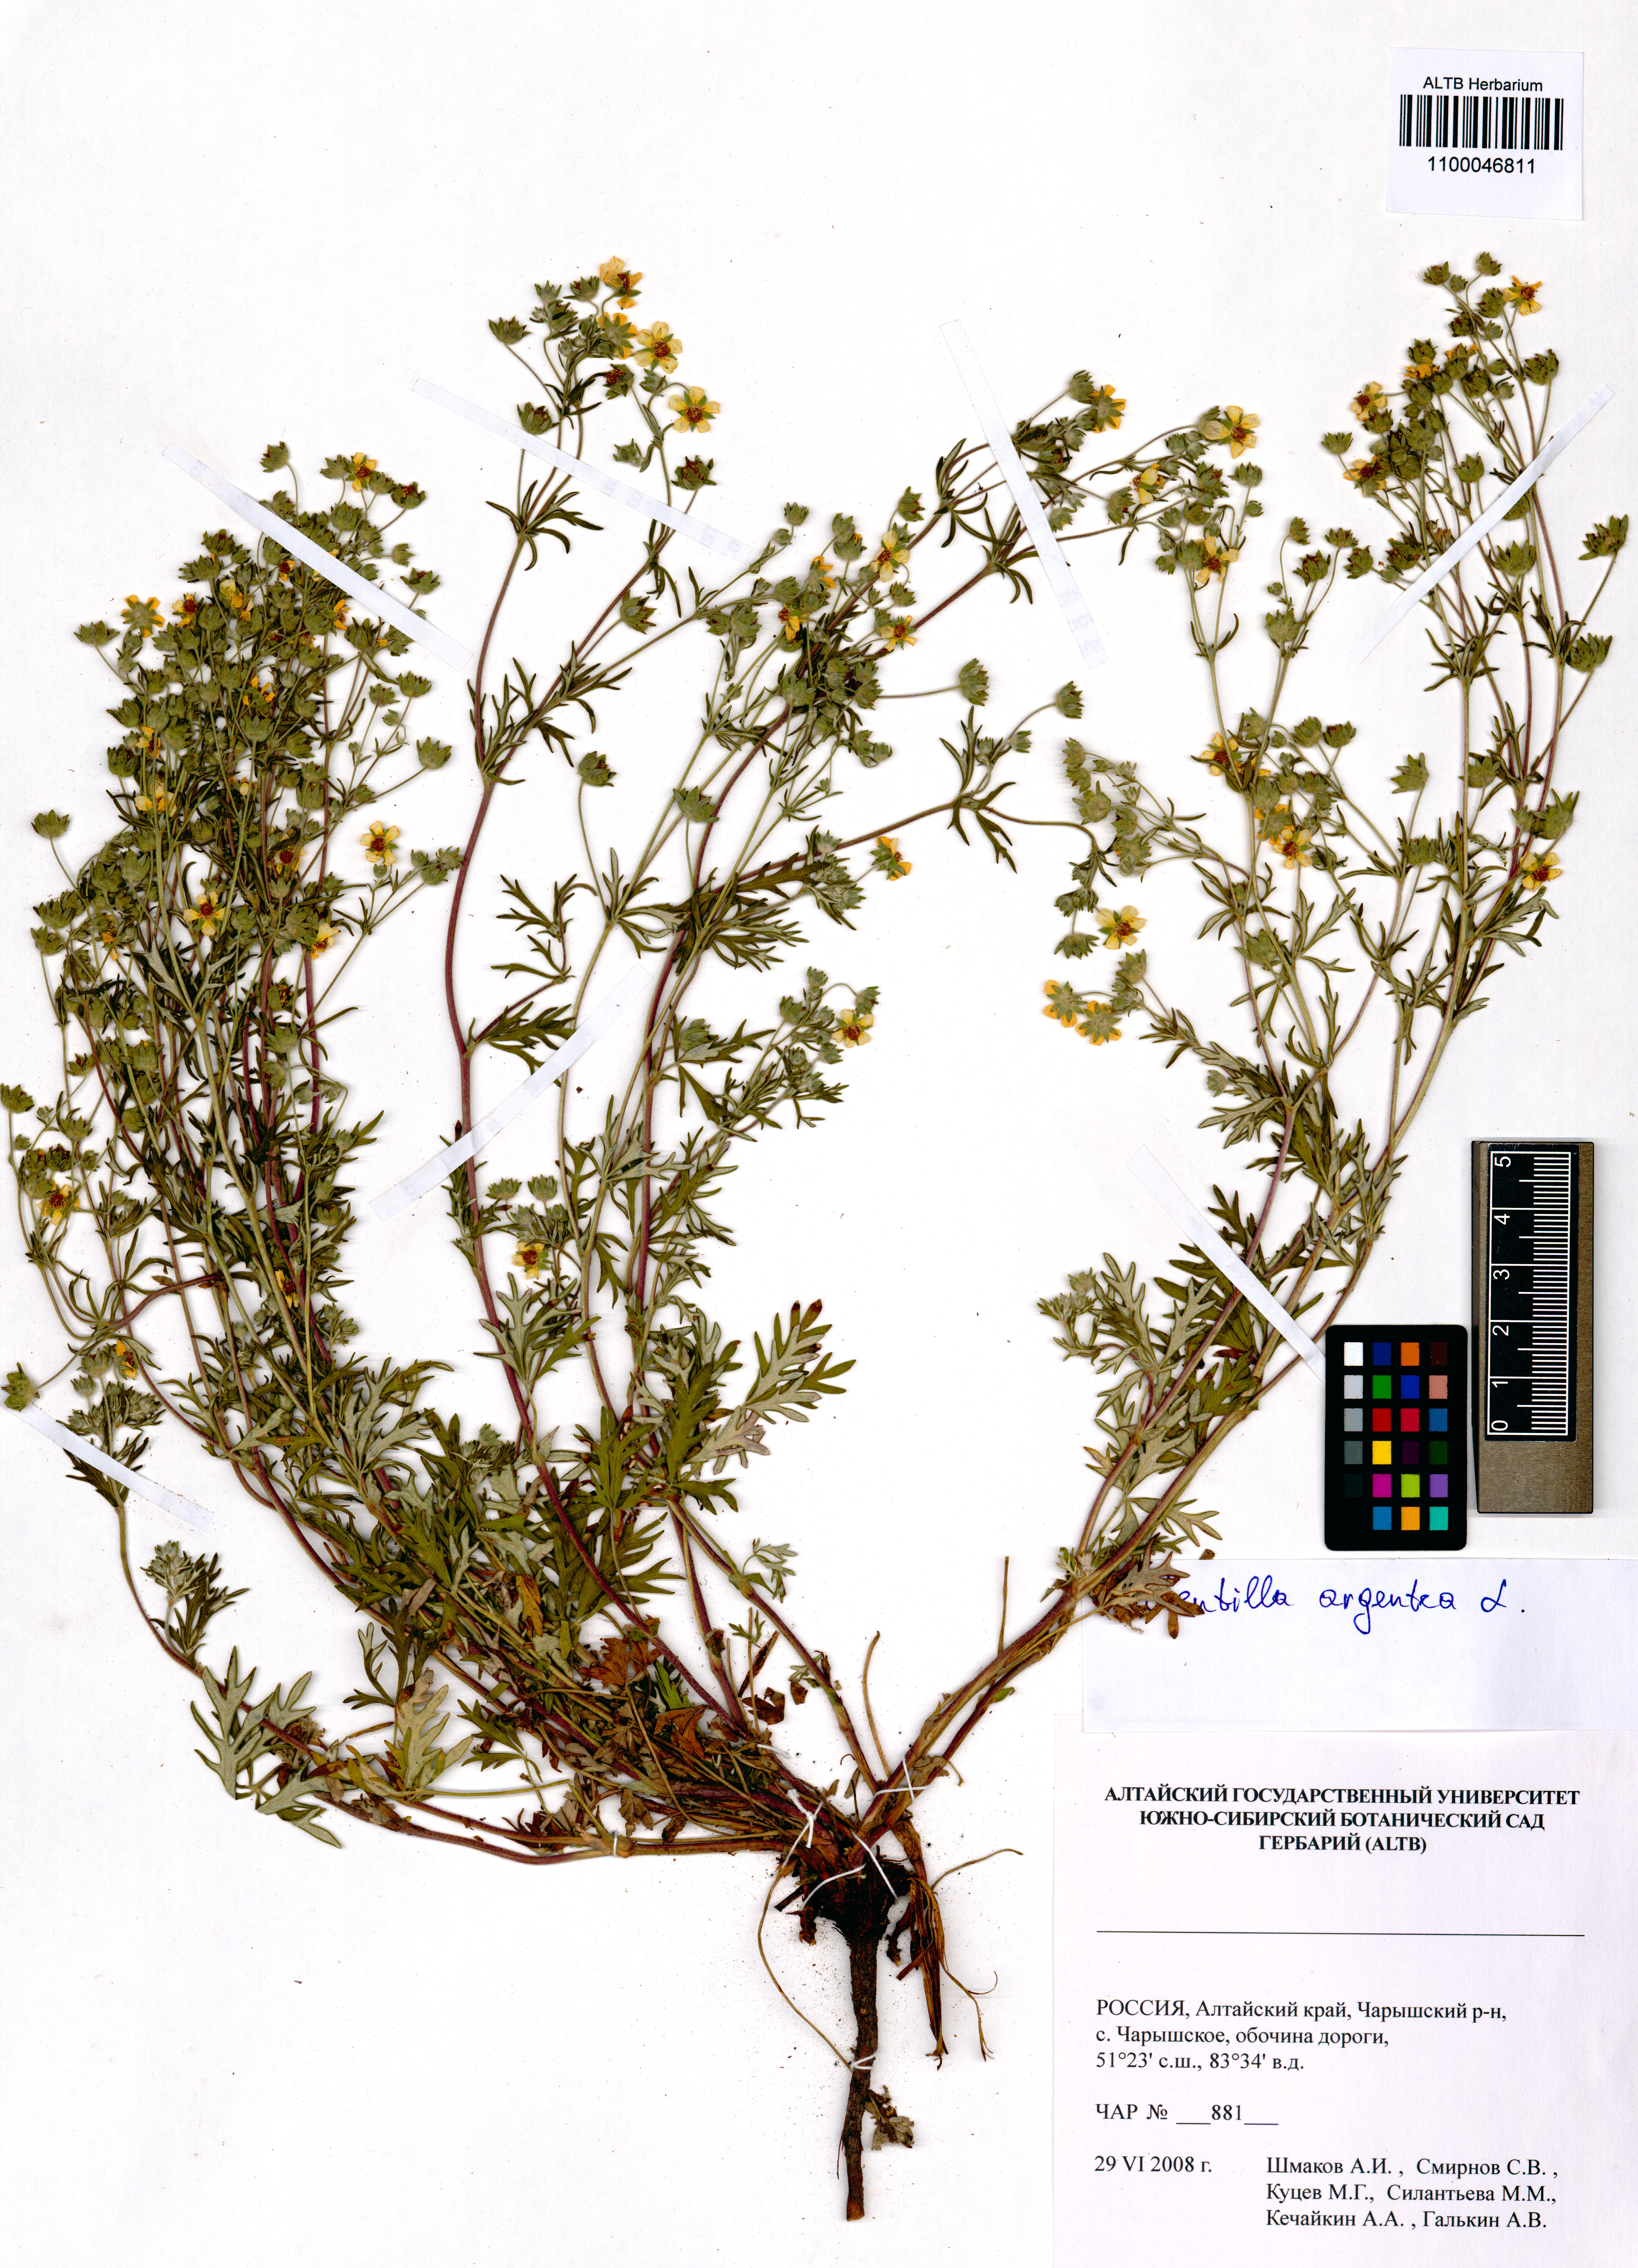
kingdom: Plantae
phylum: Tracheophyta
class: Magnoliopsida
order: Rosales
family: Rosaceae
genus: Potentilla
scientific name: Potentilla argentea
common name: Hoary cinquefoil
